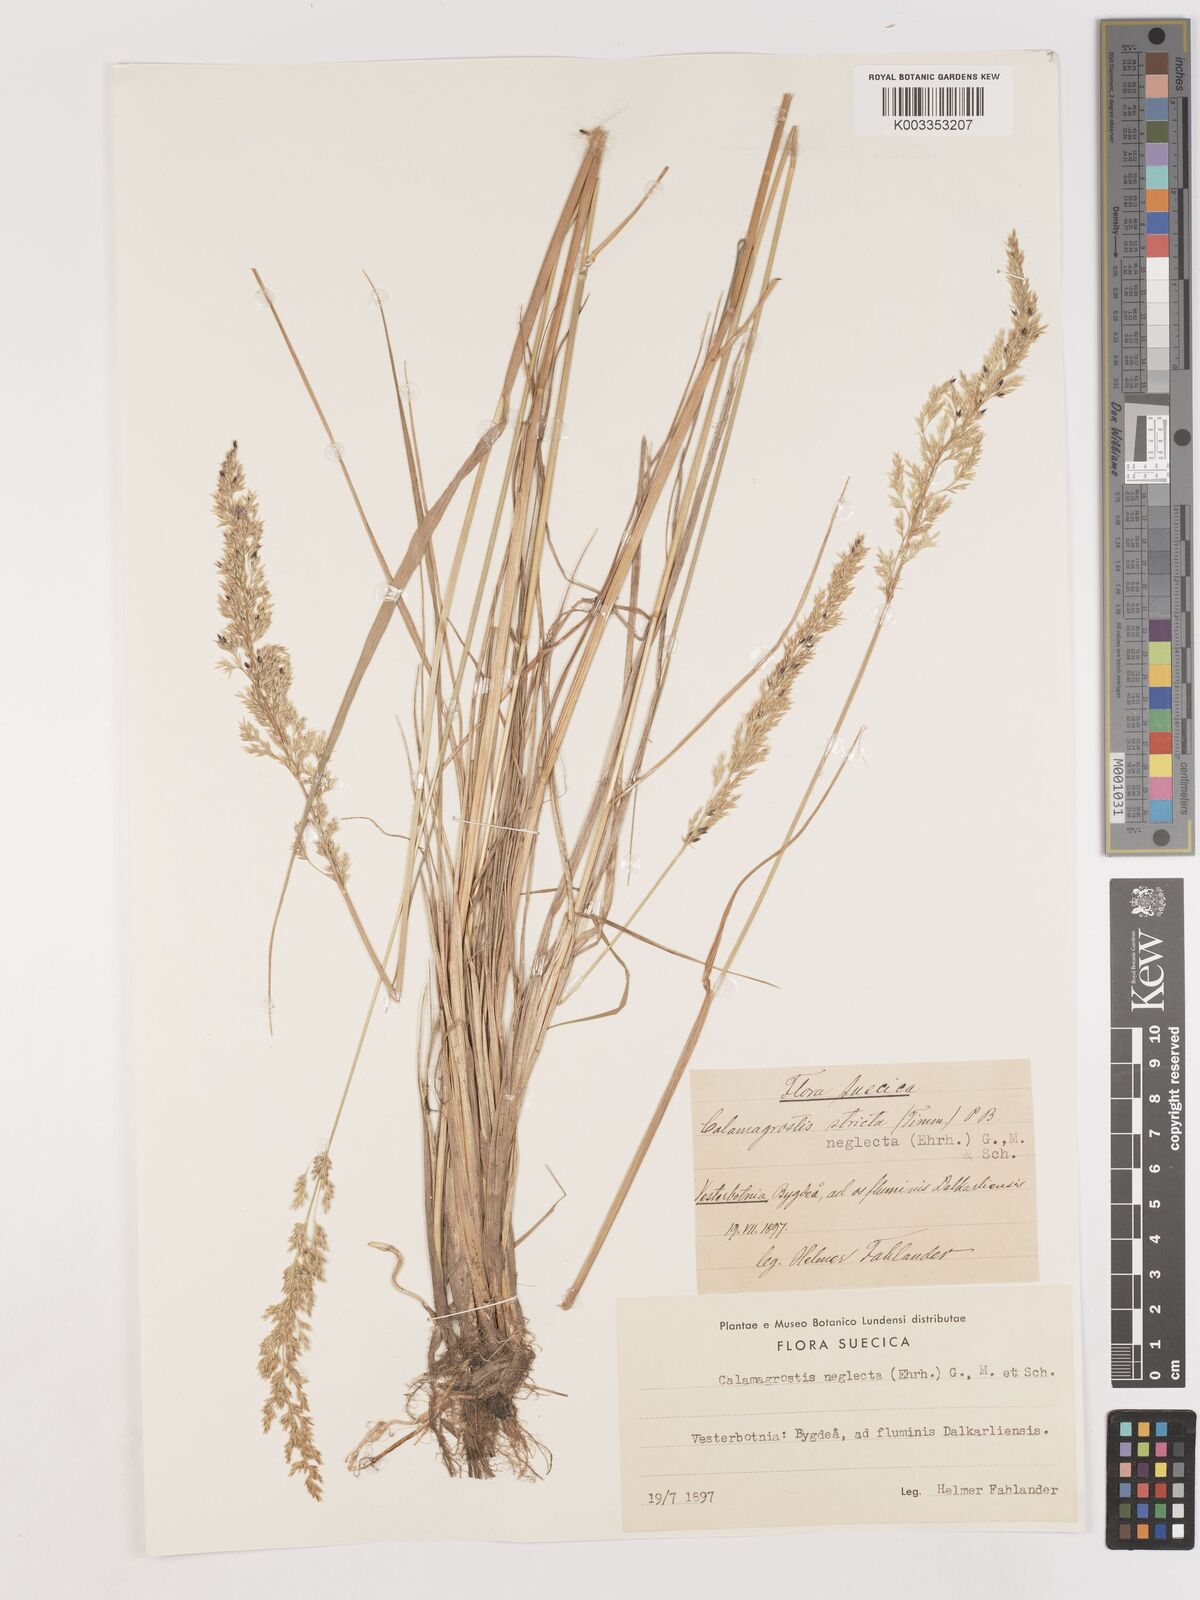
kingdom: Plantae
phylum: Tracheophyta
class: Liliopsida
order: Poales
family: Poaceae
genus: Cinnagrostis
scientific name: Cinnagrostis recta
